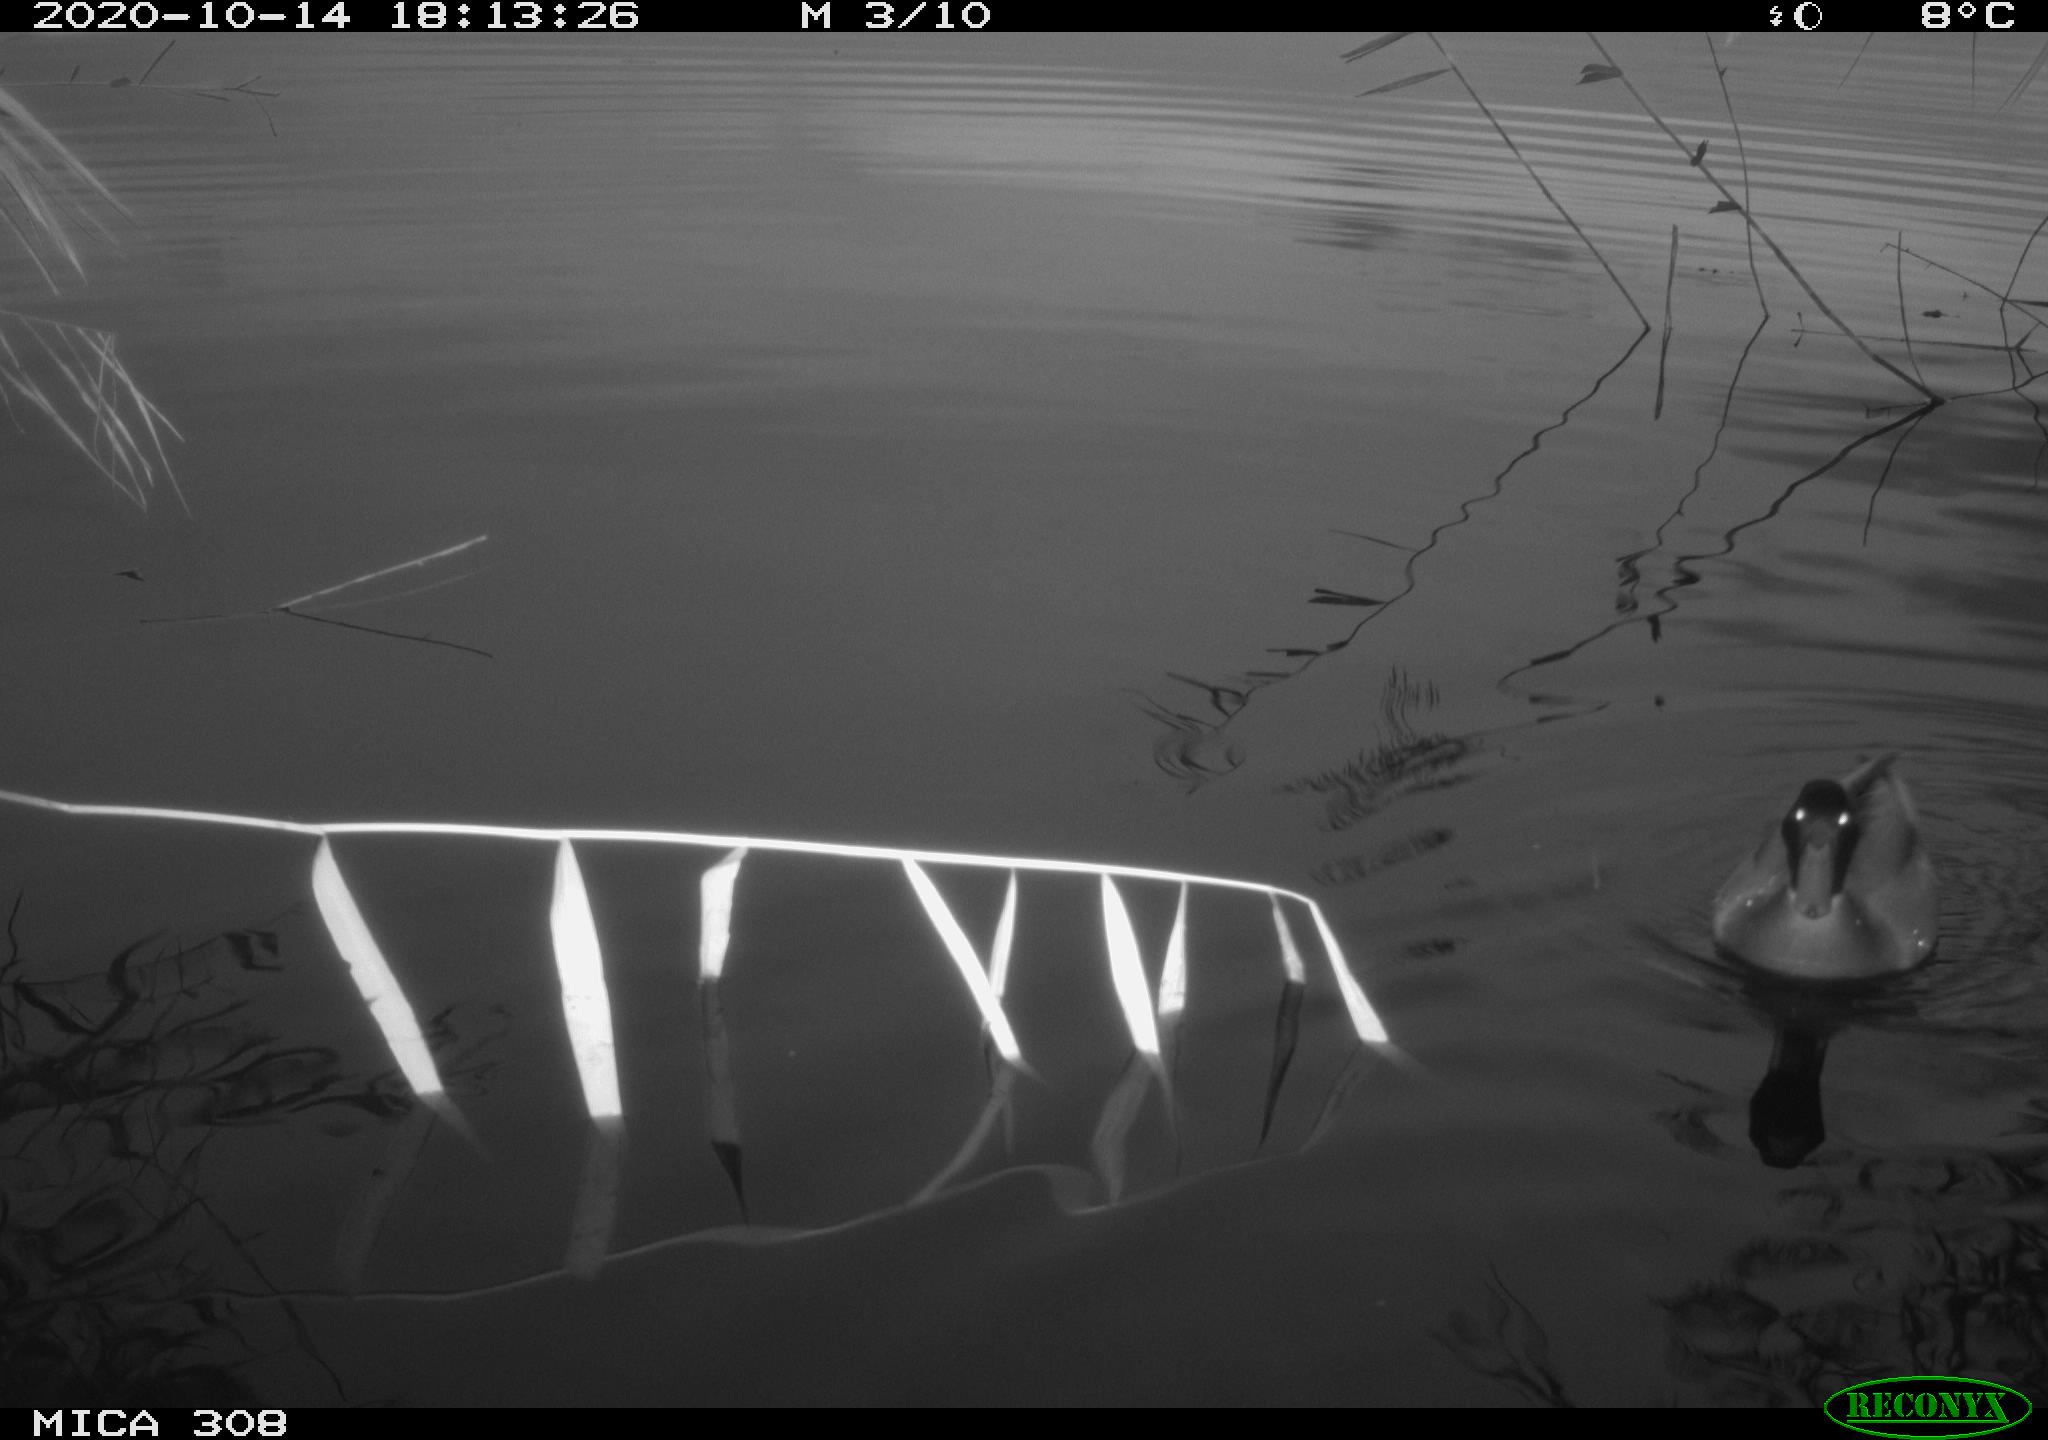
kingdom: Animalia
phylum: Chordata
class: Aves
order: Anseriformes
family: Anatidae
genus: Anas
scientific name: Anas platyrhynchos
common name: Mallard
